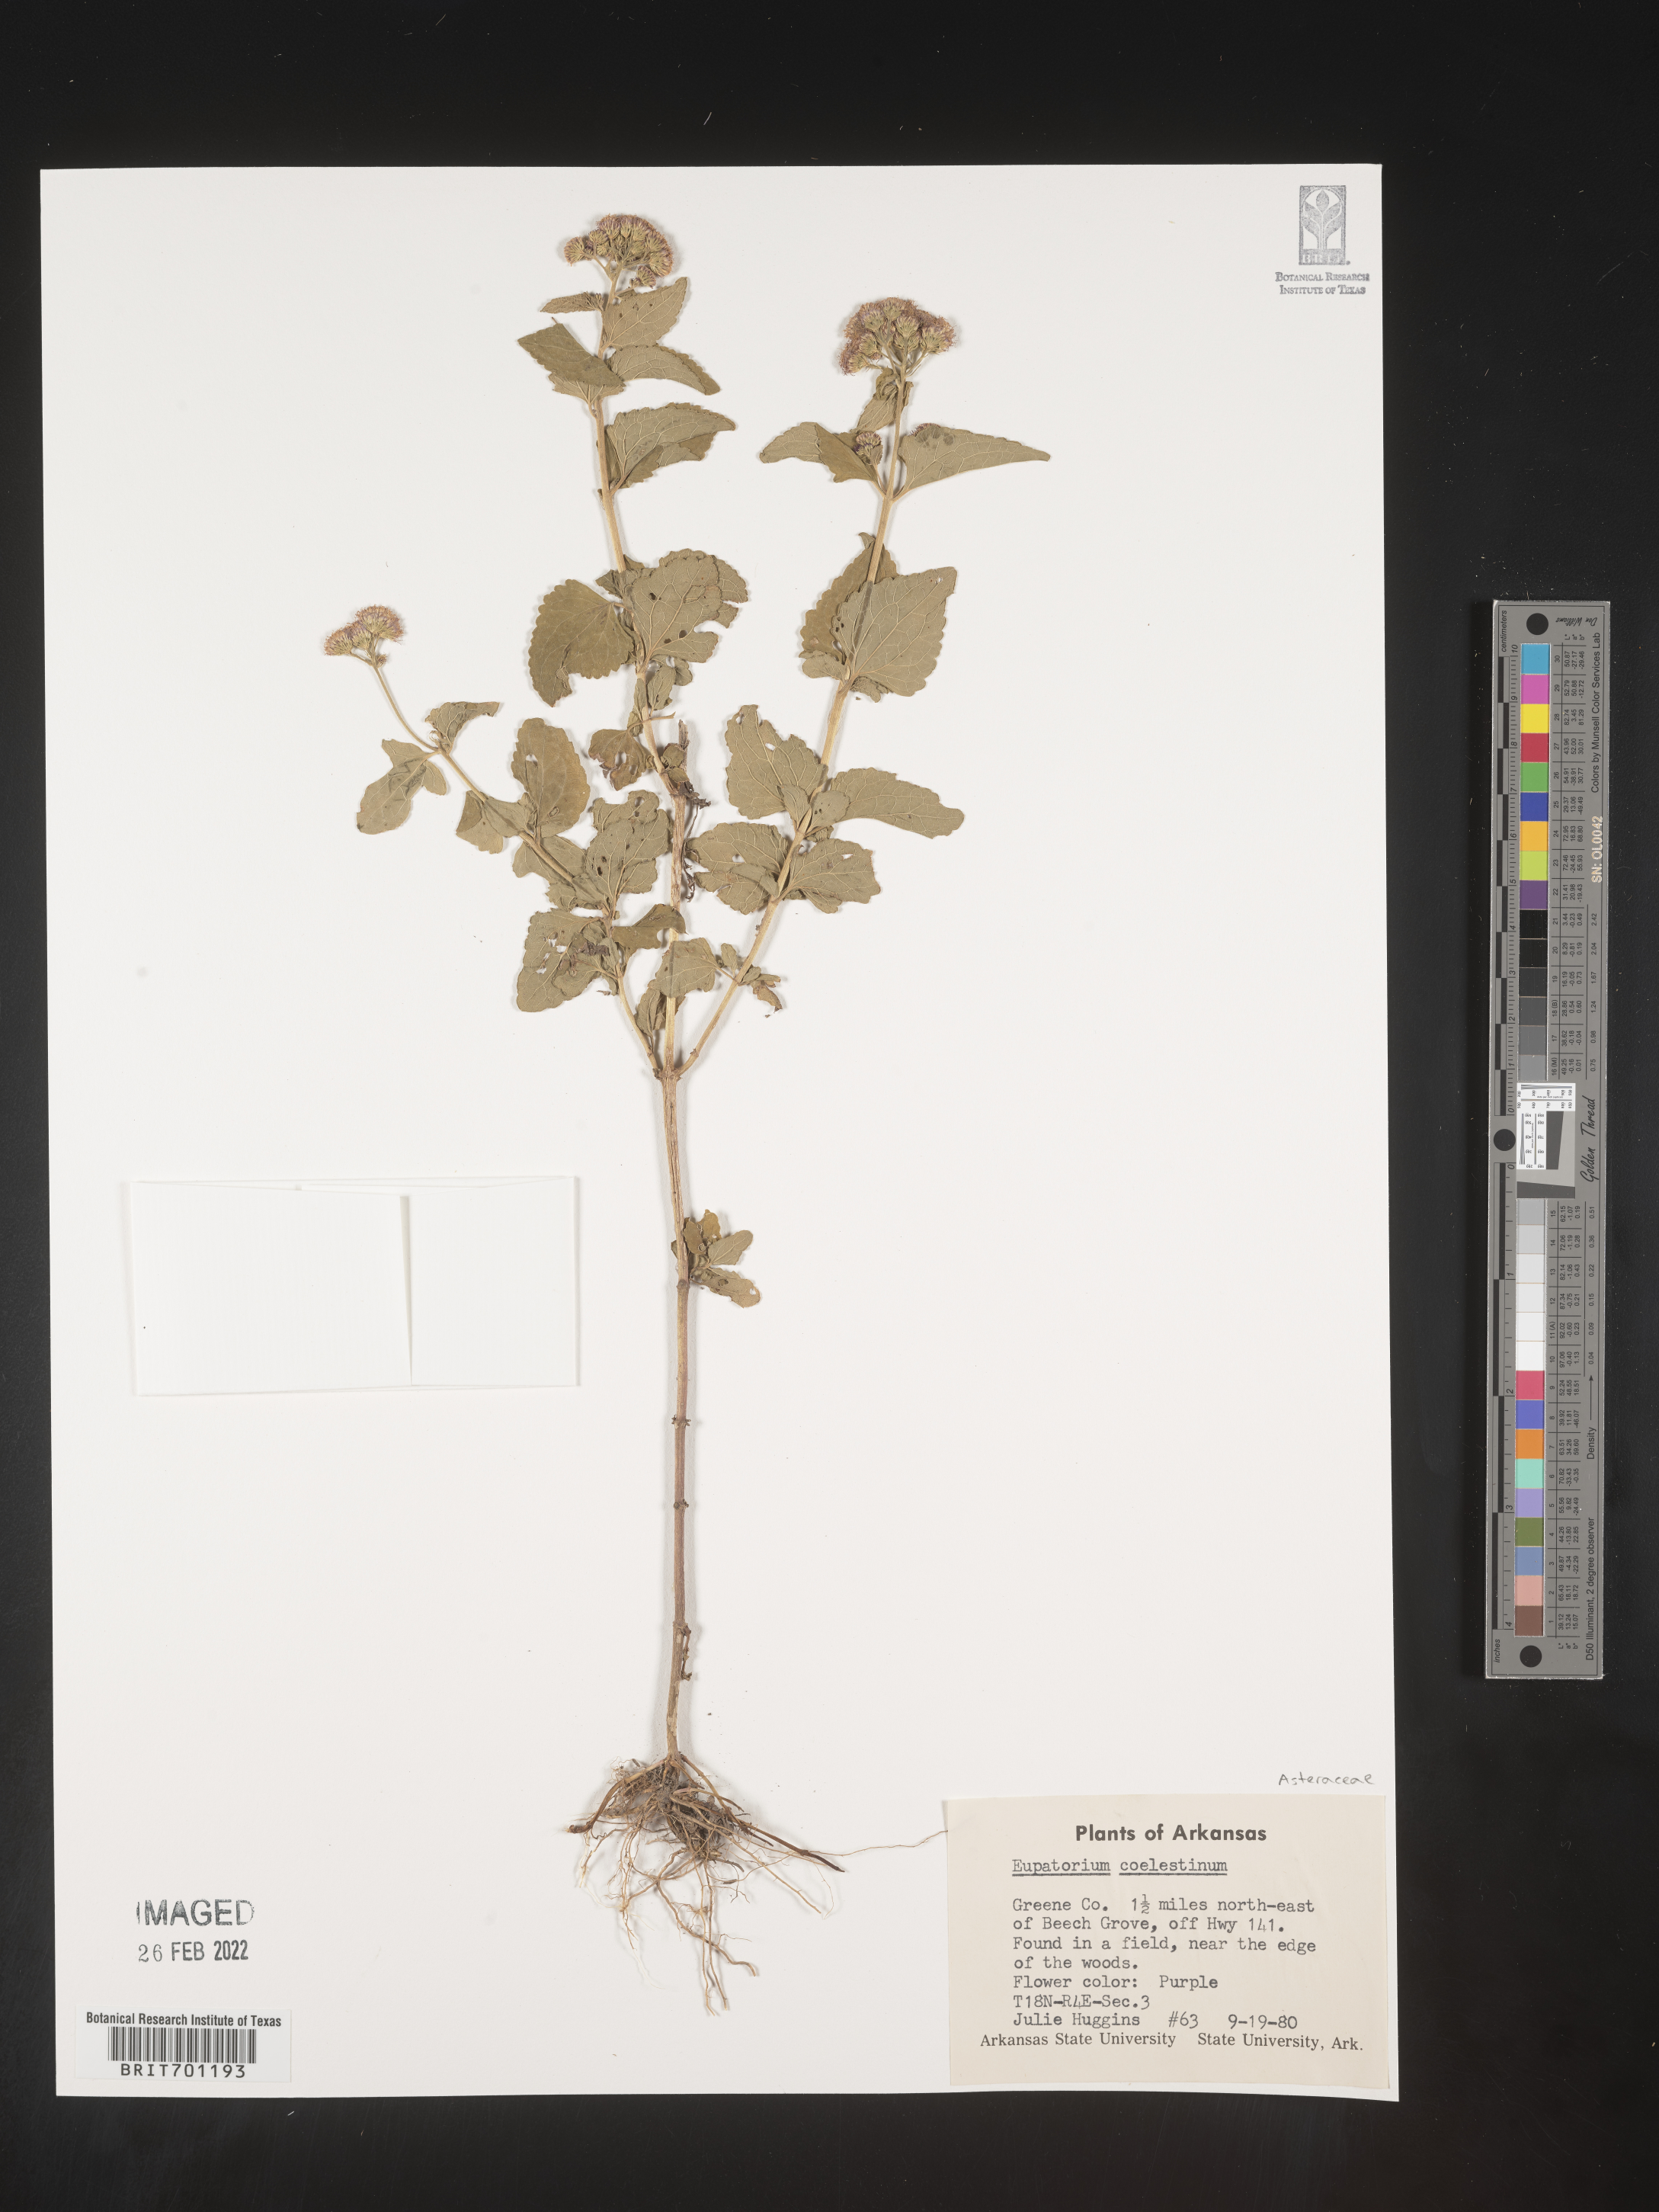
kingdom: Plantae
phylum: Tracheophyta
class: Magnoliopsida
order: Asterales
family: Asteraceae
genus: Conoclinium
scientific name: Conoclinium coelestinum
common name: Blue mistflower
